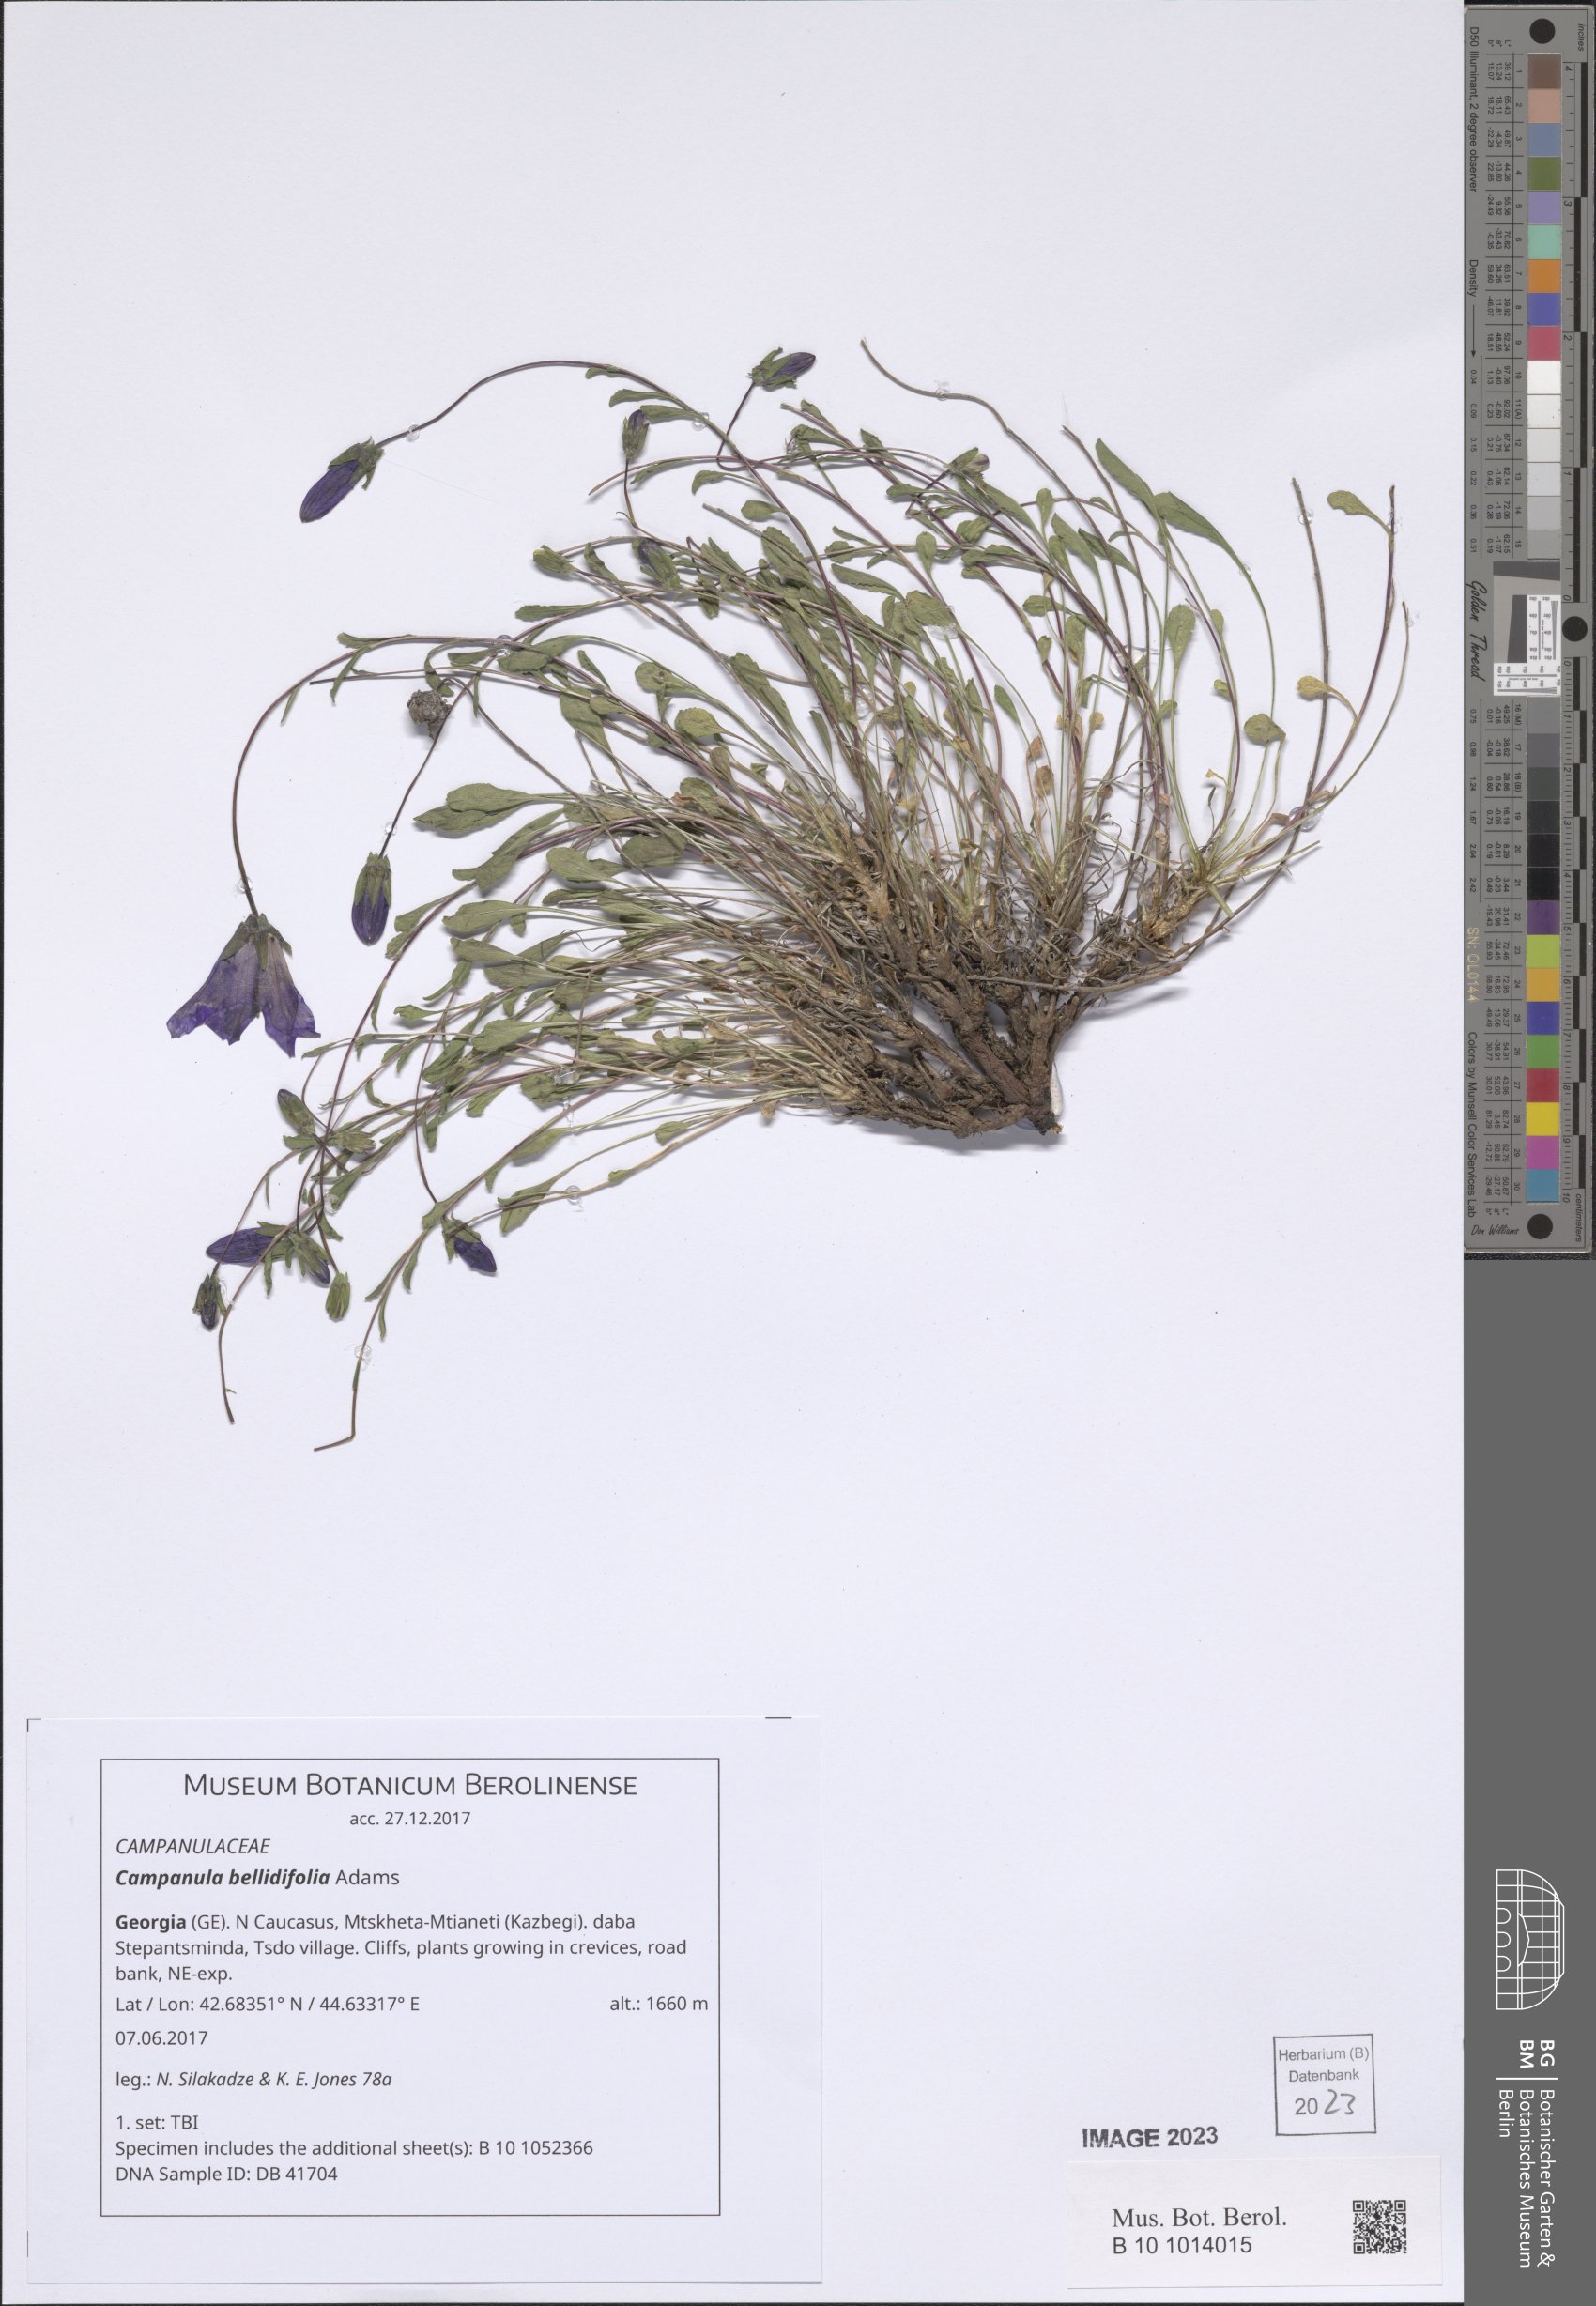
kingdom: Plantae
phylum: Tracheophyta
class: Magnoliopsida
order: Asterales
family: Campanulaceae
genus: Campanula
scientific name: Campanula bellidifolia
